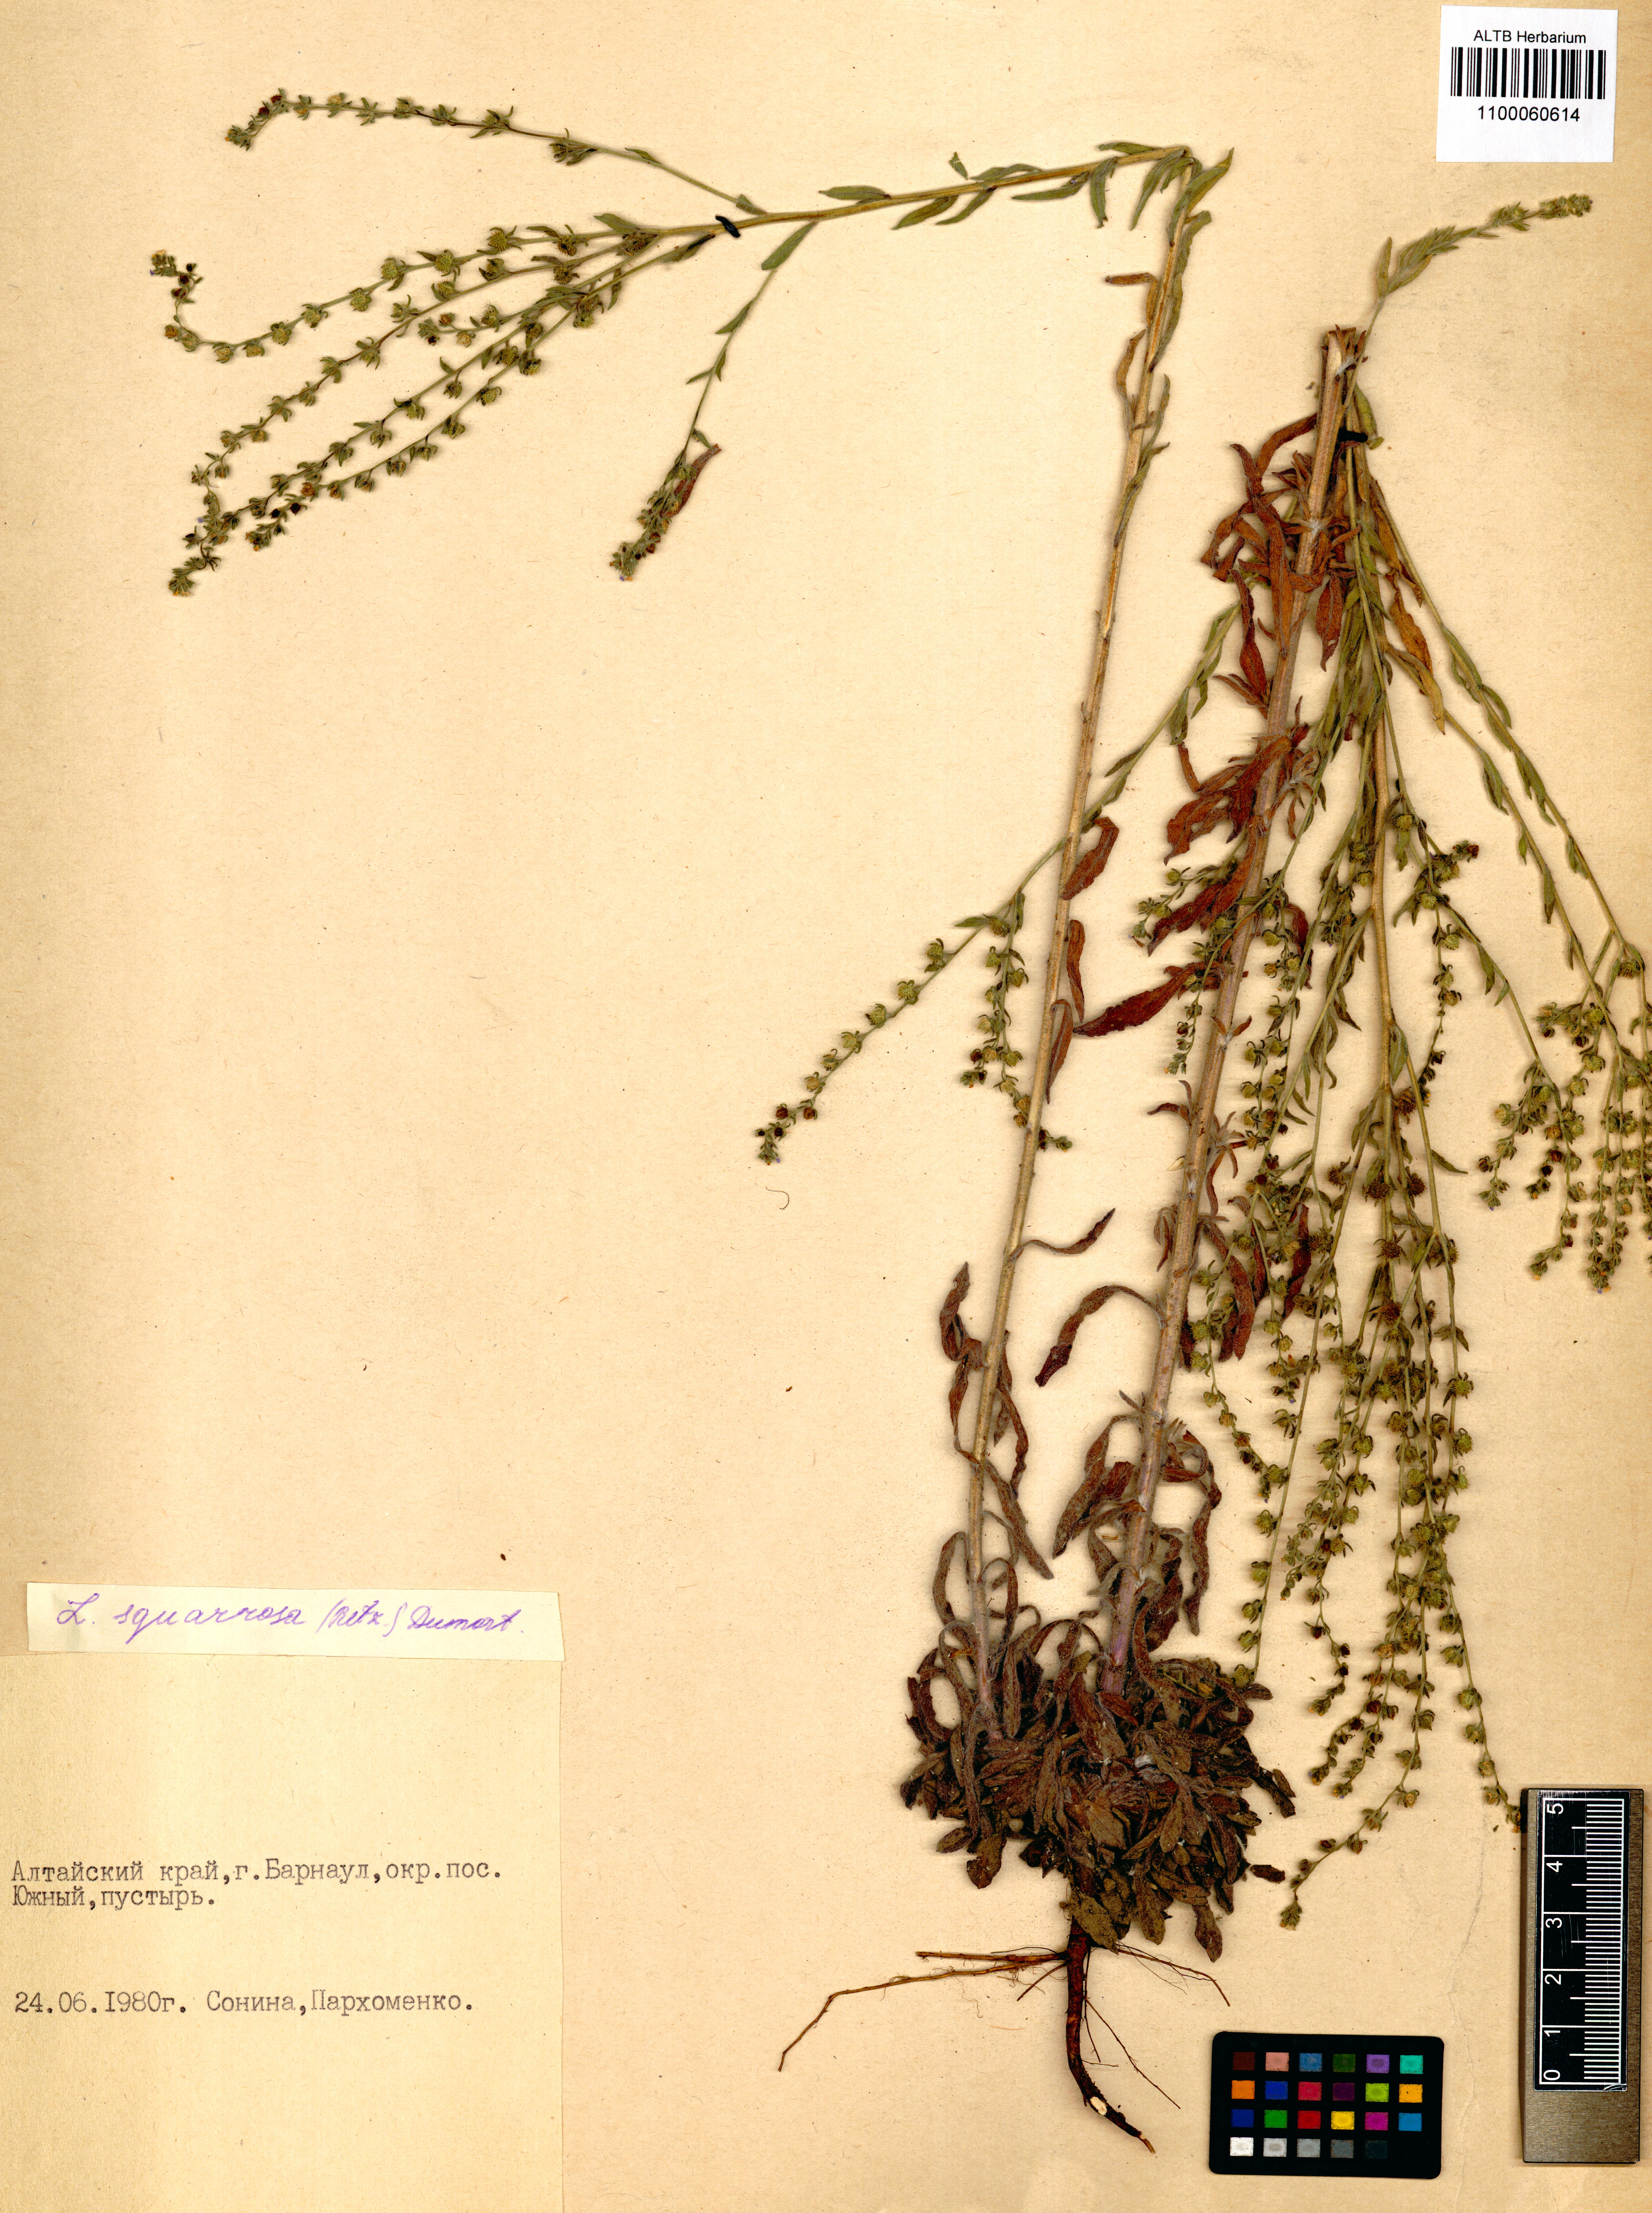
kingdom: Plantae
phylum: Tracheophyta
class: Magnoliopsida
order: Boraginales
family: Boraginaceae
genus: Lappula
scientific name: Lappula squarrosa
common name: European stickseed
